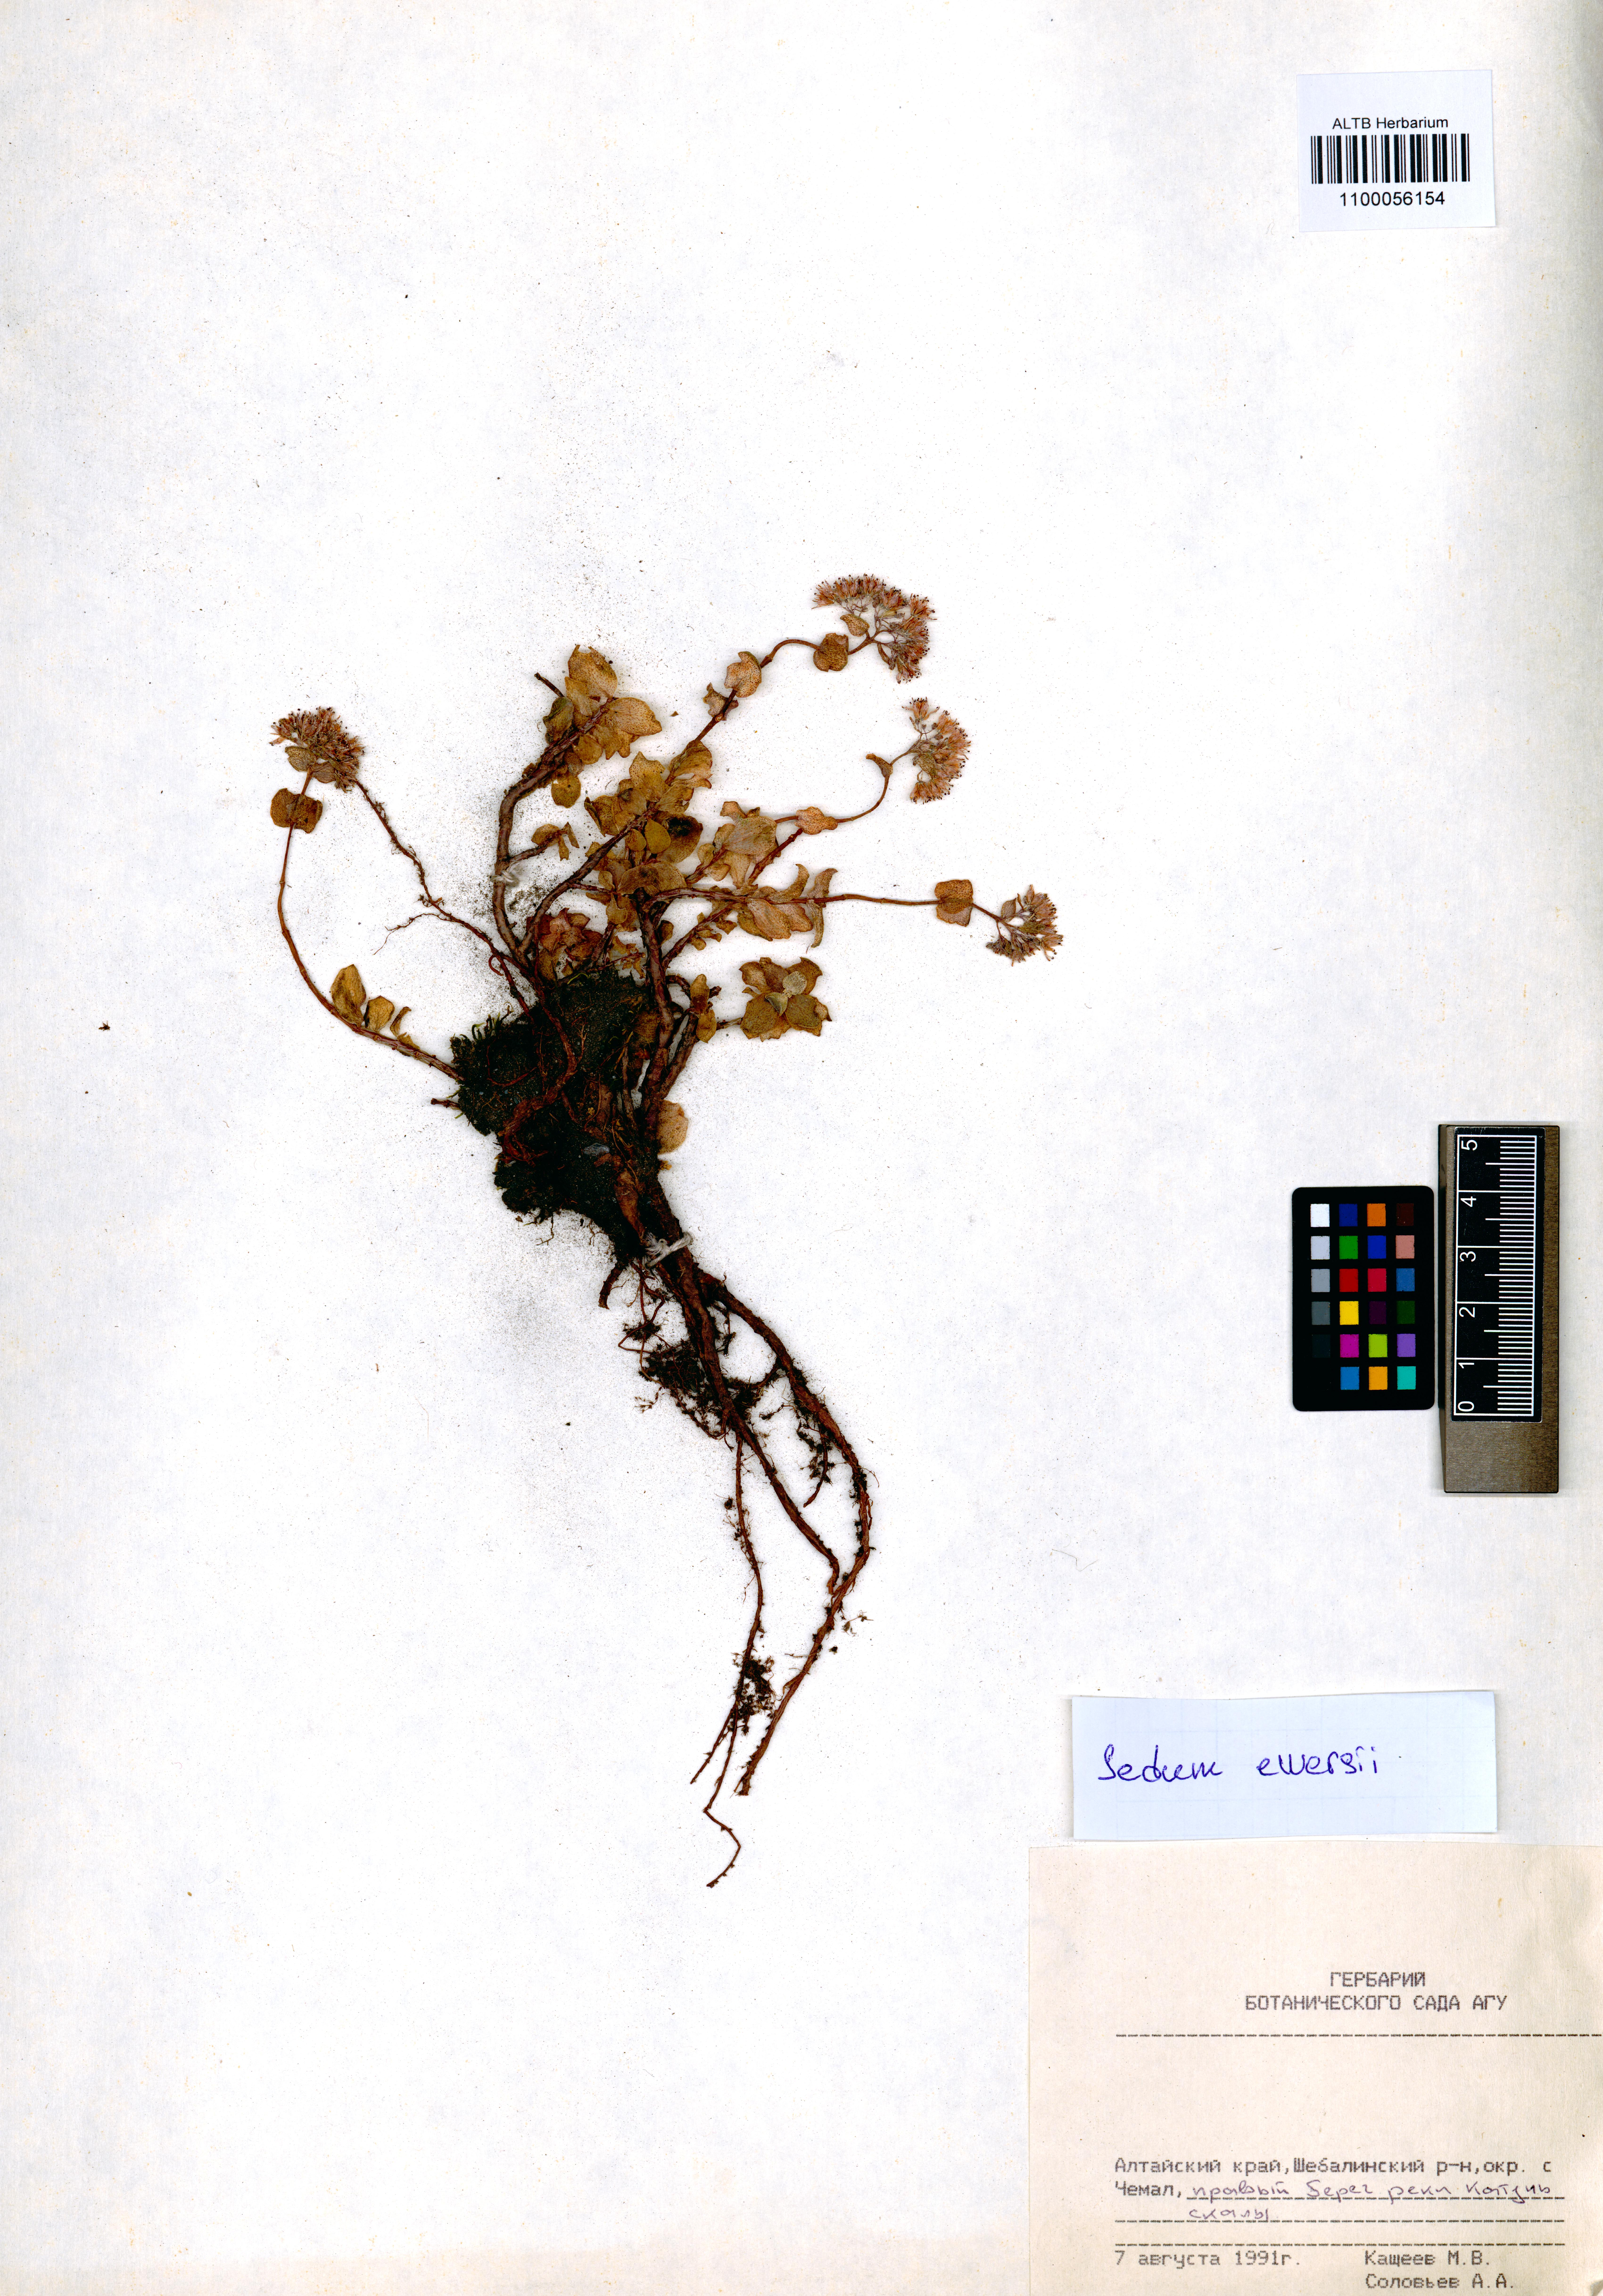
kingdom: Plantae
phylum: Tracheophyta
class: Magnoliopsida
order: Saxifragales
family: Crassulaceae
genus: Hylotelephium
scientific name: Hylotelephium ewersii
